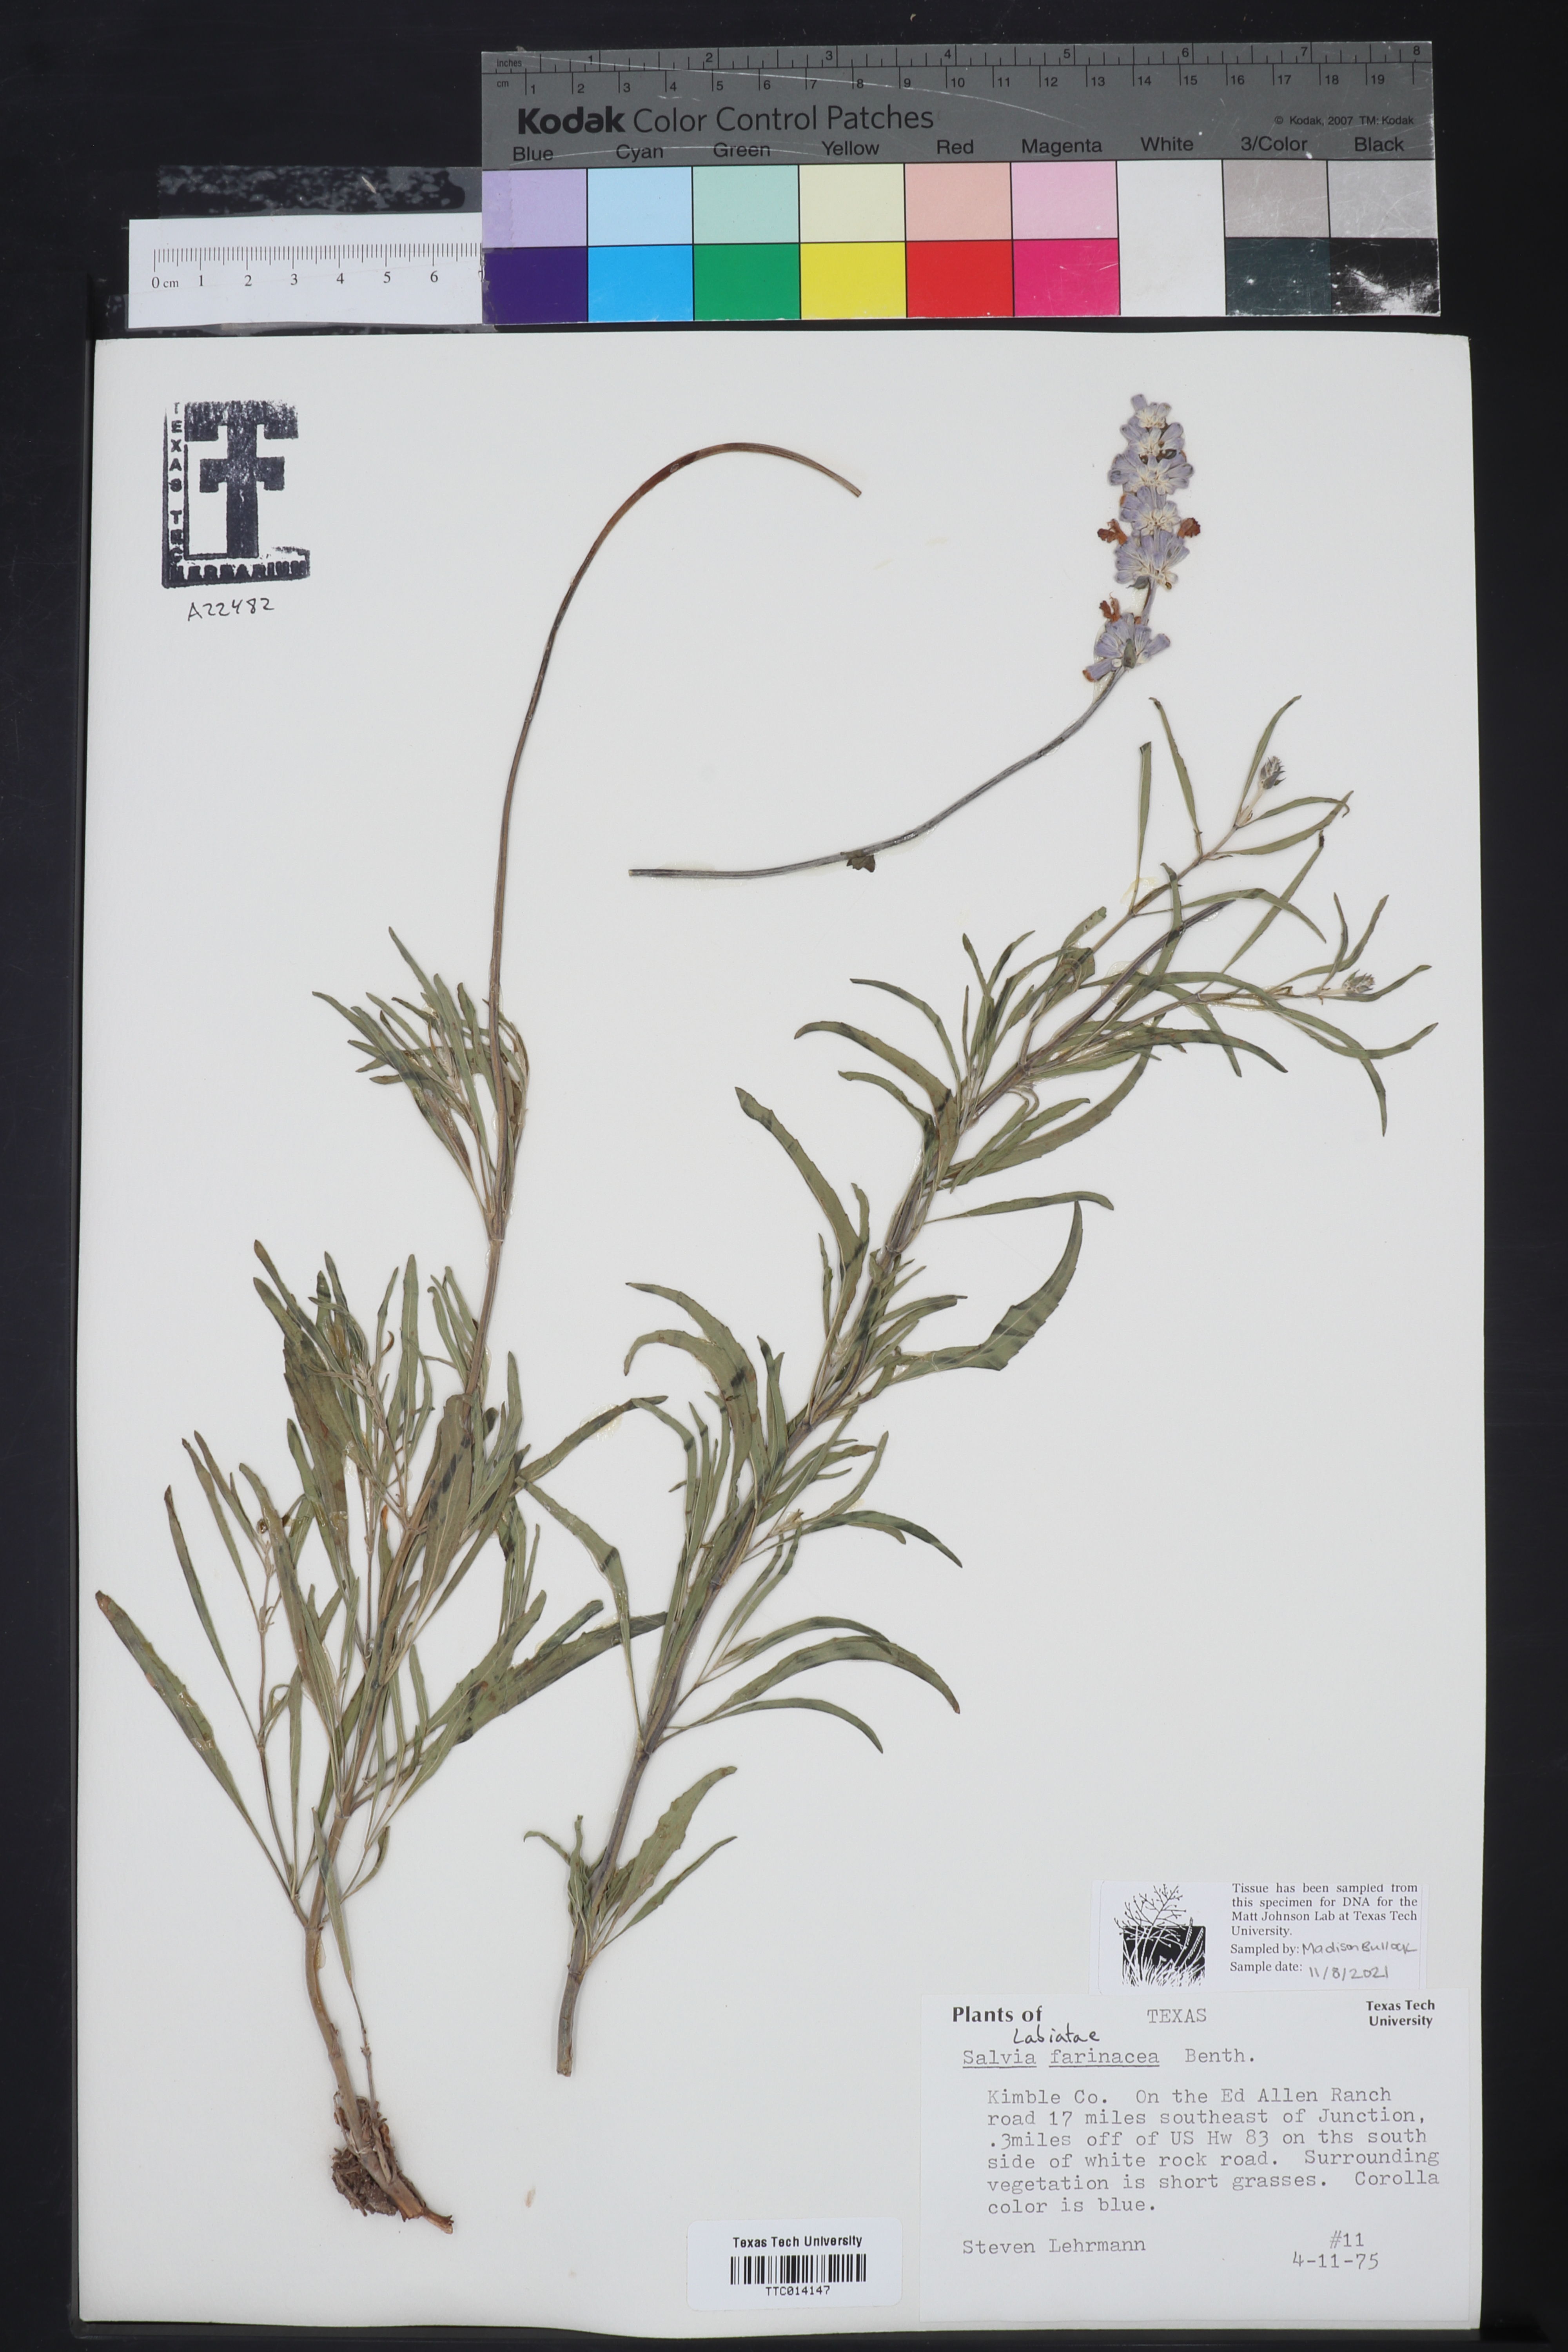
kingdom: Plantae
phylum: Tracheophyta
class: Magnoliopsida
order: Lamiales
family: Lamiaceae
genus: Salvia
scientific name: Salvia farinacea
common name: Mealy sage
